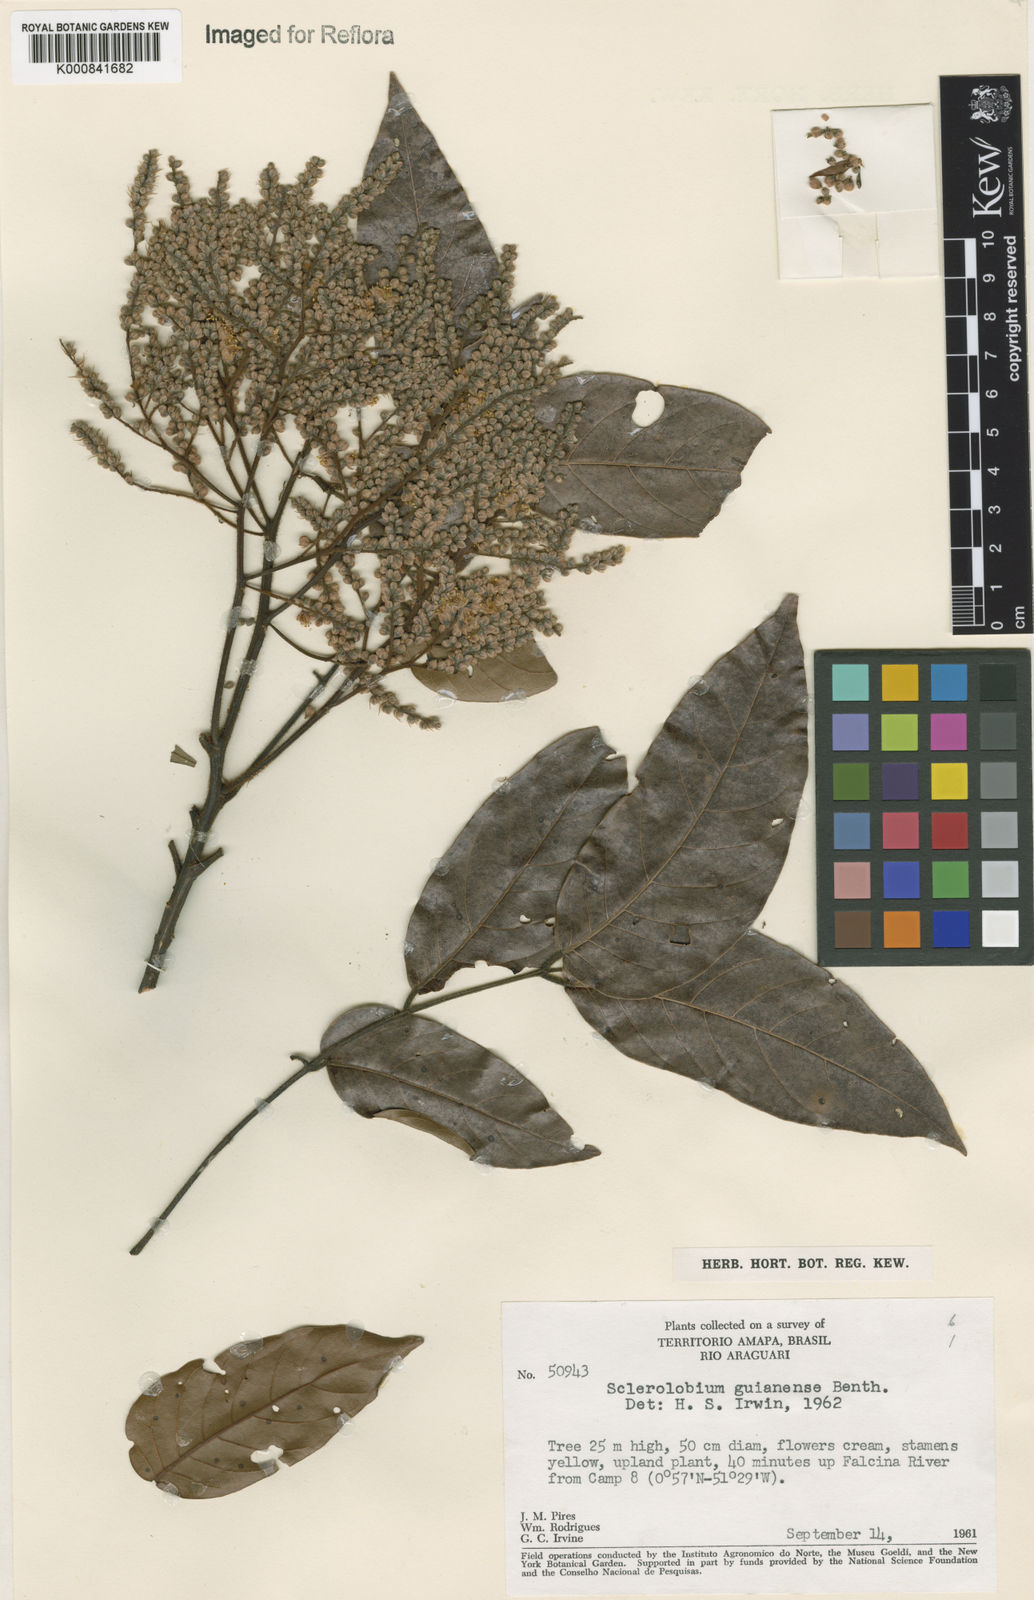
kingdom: Plantae
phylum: Tracheophyta
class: Magnoliopsida
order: Fabales
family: Fabaceae
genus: Tachigali
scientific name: Tachigali guianensis
